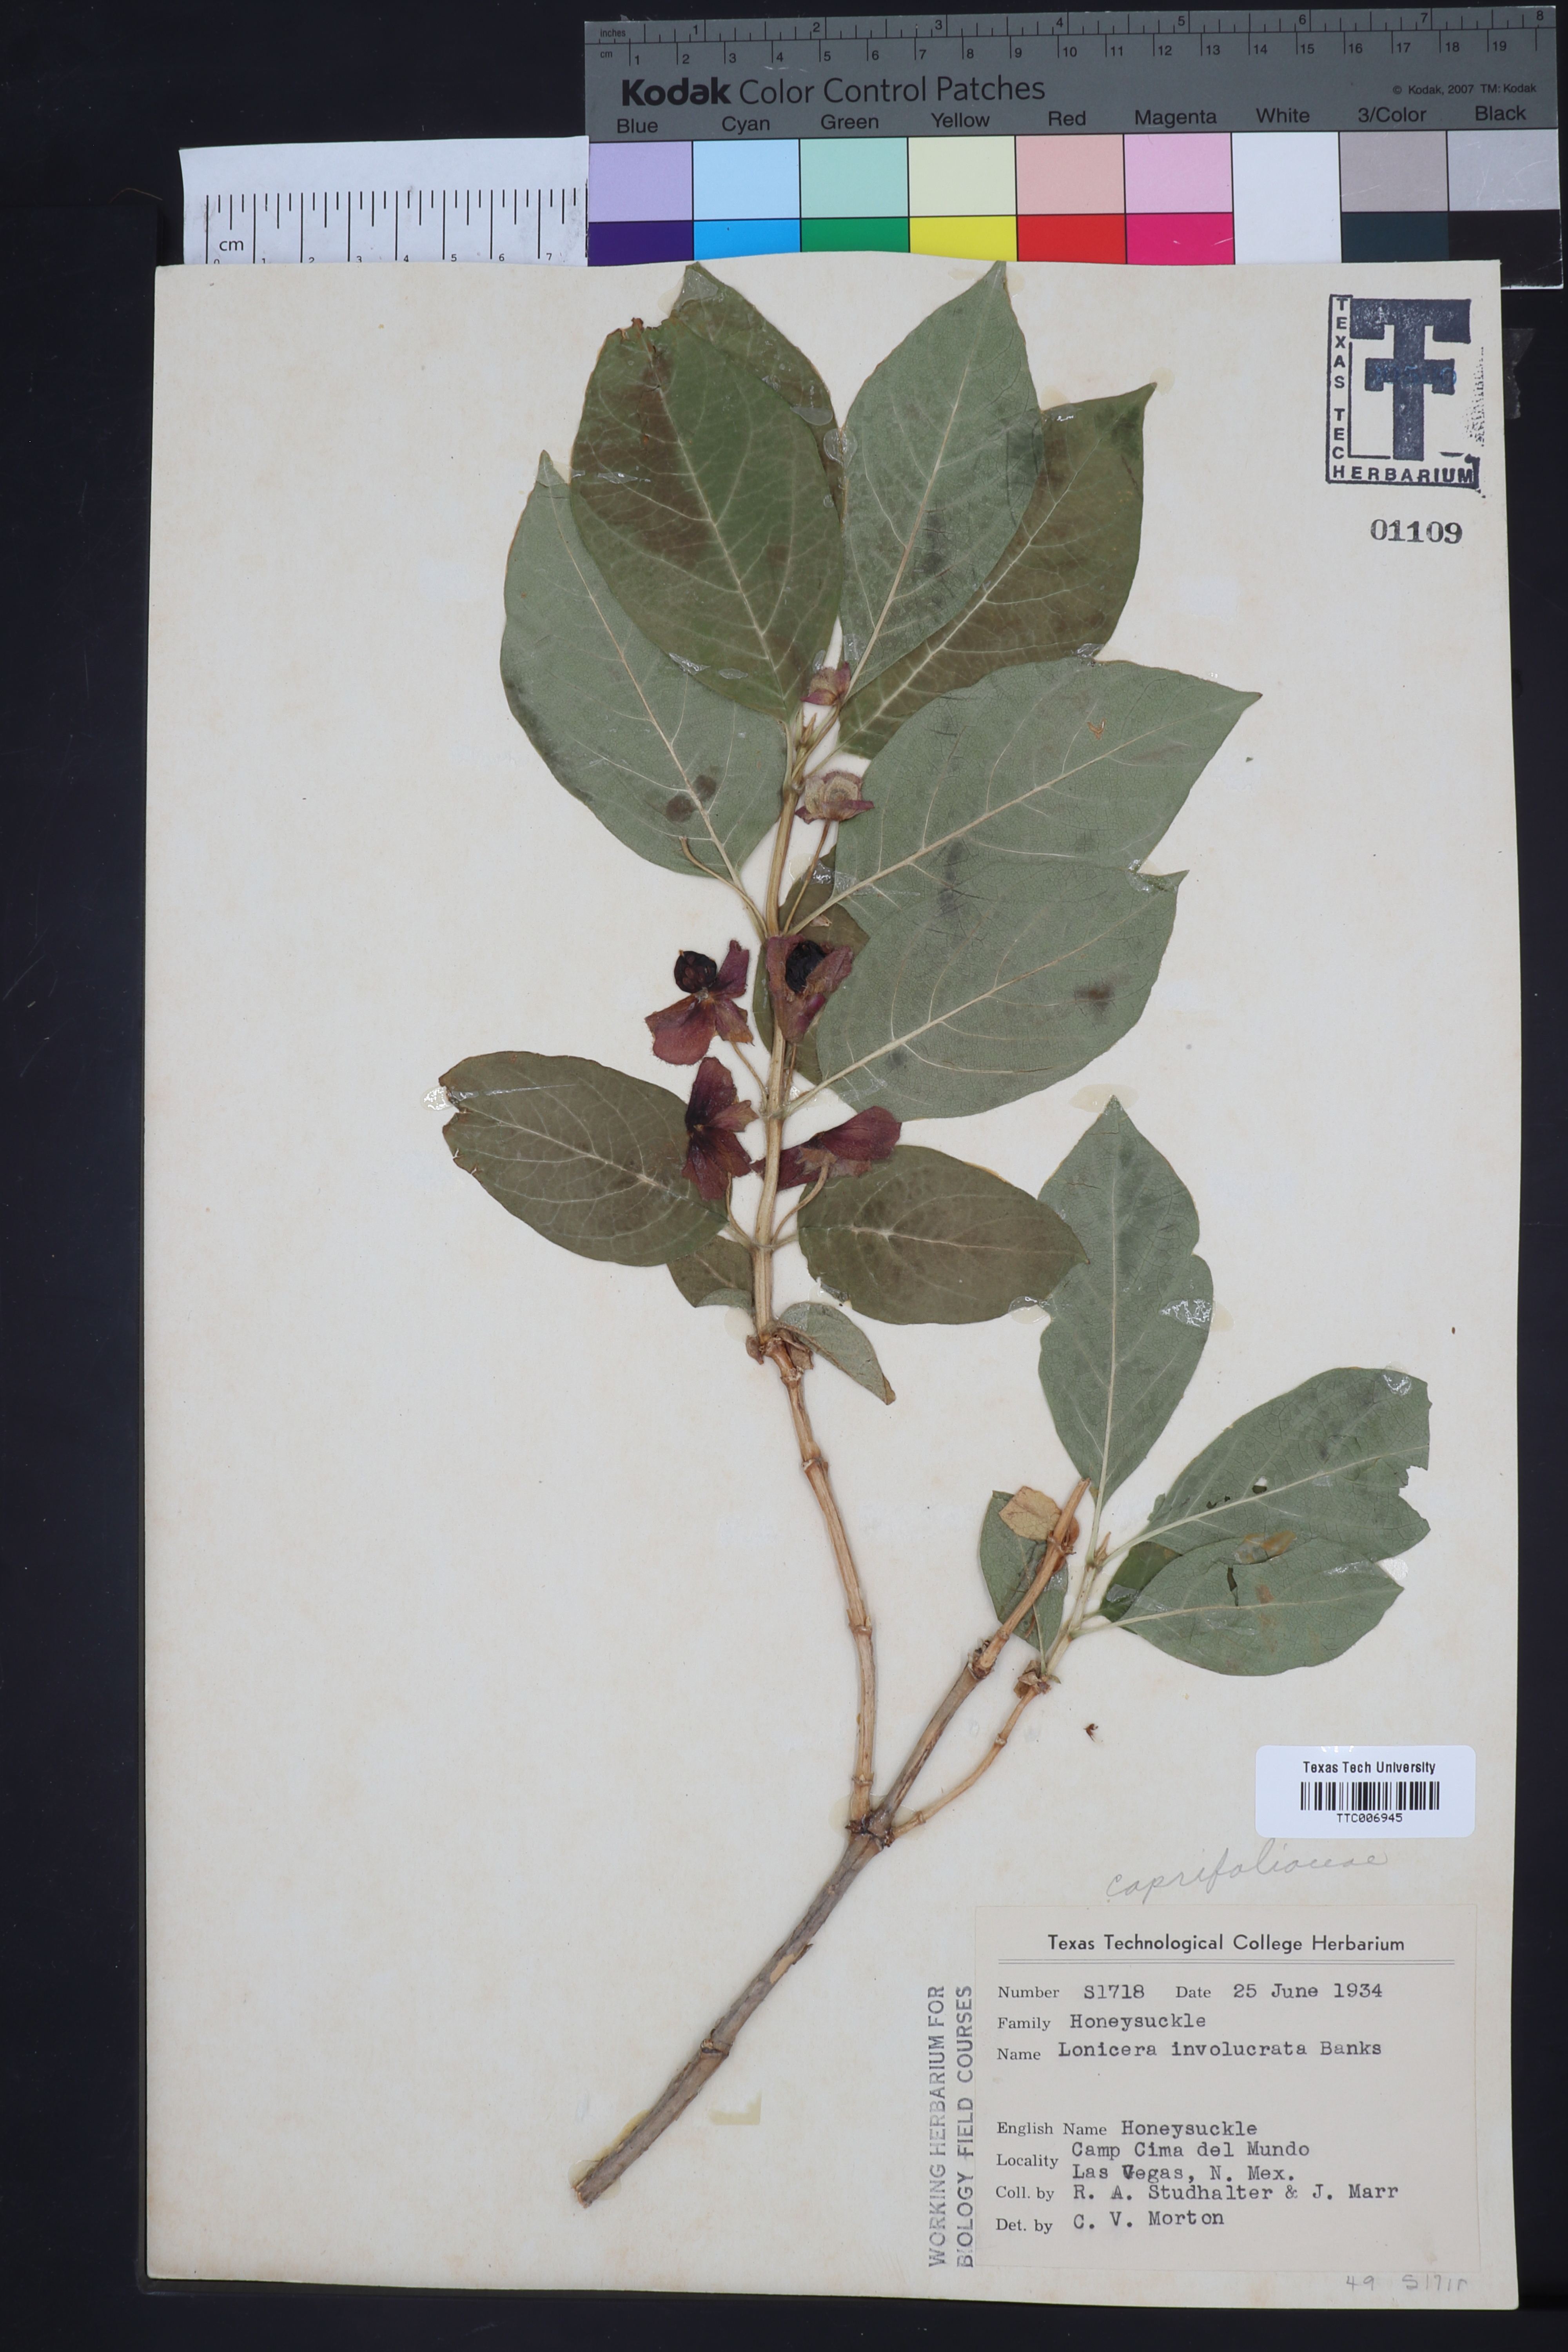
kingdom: Plantae
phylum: Tracheophyta
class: Magnoliopsida
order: Dipsacales
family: Caprifoliaceae
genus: Lonicera
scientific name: Lonicera involucrata
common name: Californian honeysuckle
